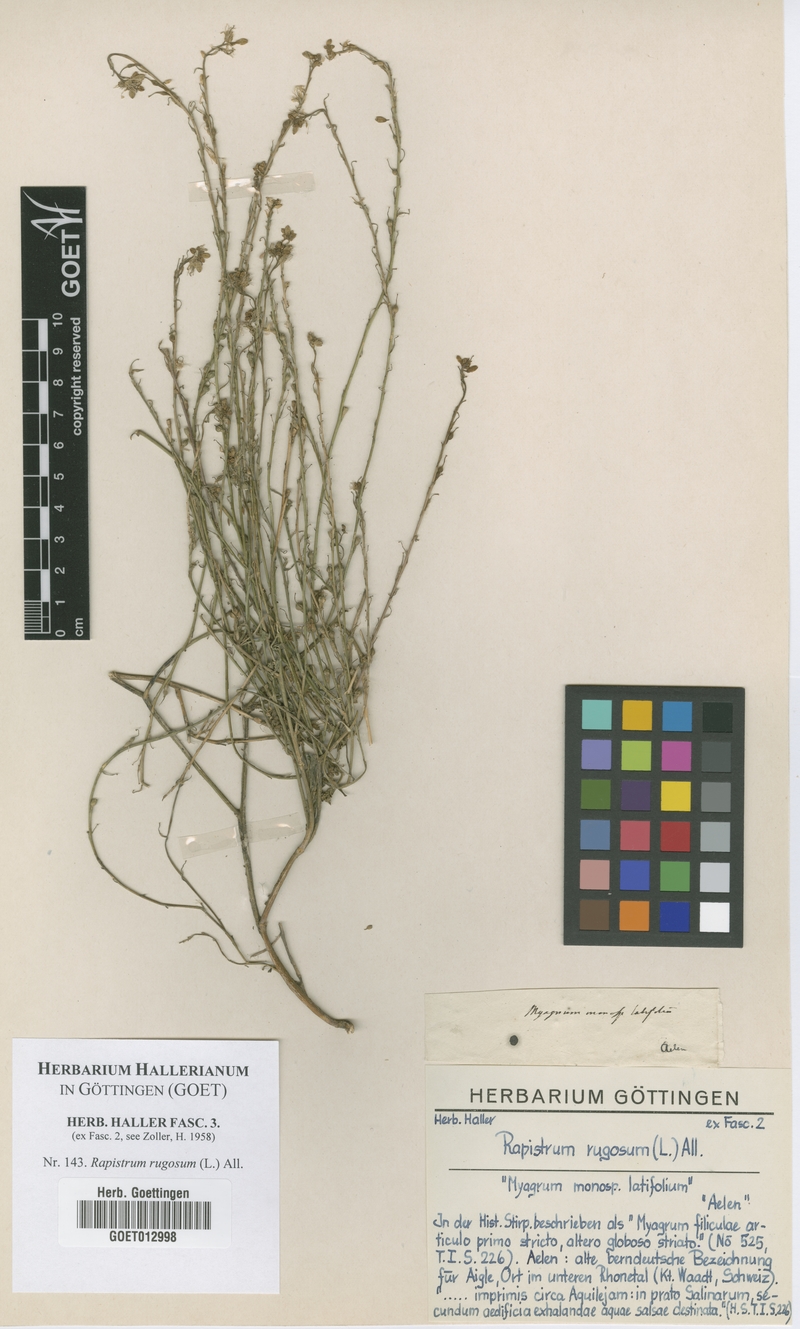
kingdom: Plantae
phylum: Tracheophyta
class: Magnoliopsida
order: Brassicales
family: Brassicaceae
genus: Rapistrum
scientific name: Rapistrum rugosum
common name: Annual bastardcabbage
